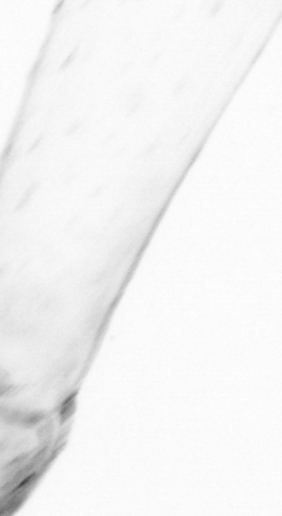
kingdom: Animalia
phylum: Chaetognatha
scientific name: Chaetognatha
